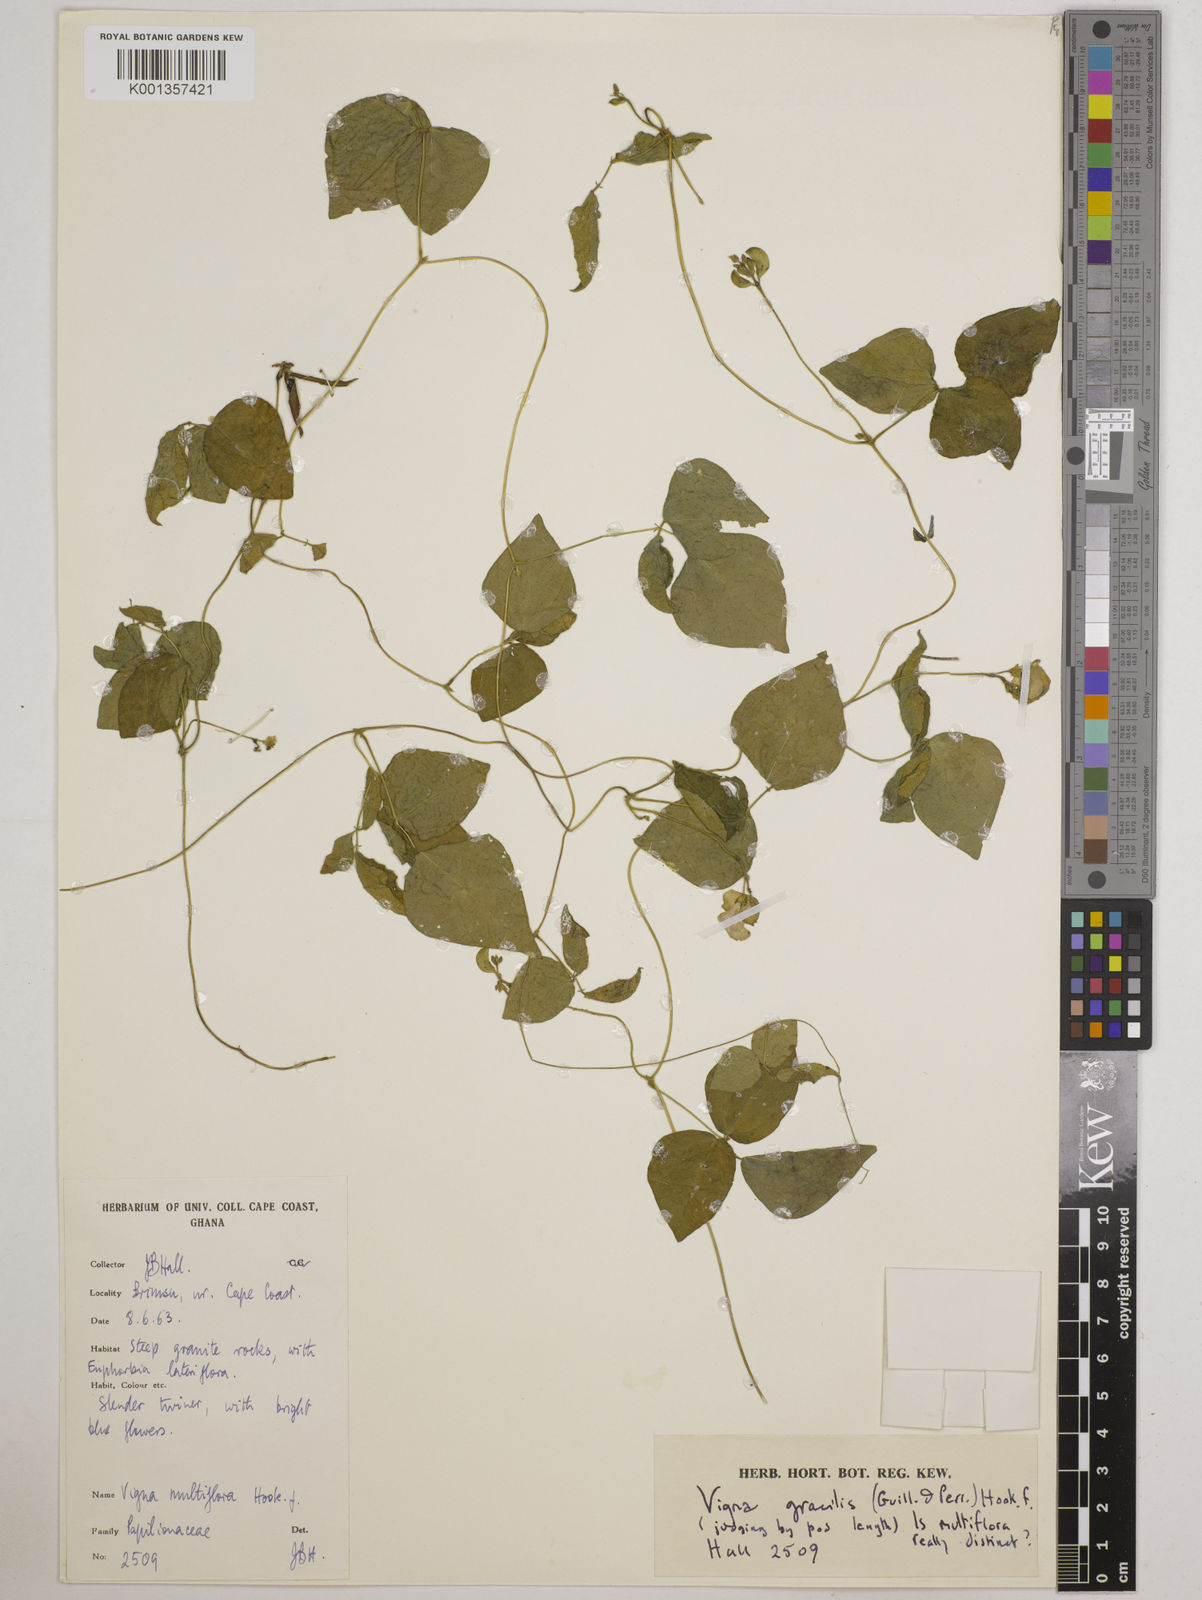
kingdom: Plantae
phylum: Tracheophyta
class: Magnoliopsida
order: Fabales
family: Fabaceae
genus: Vigna
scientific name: Vigna gracilis
